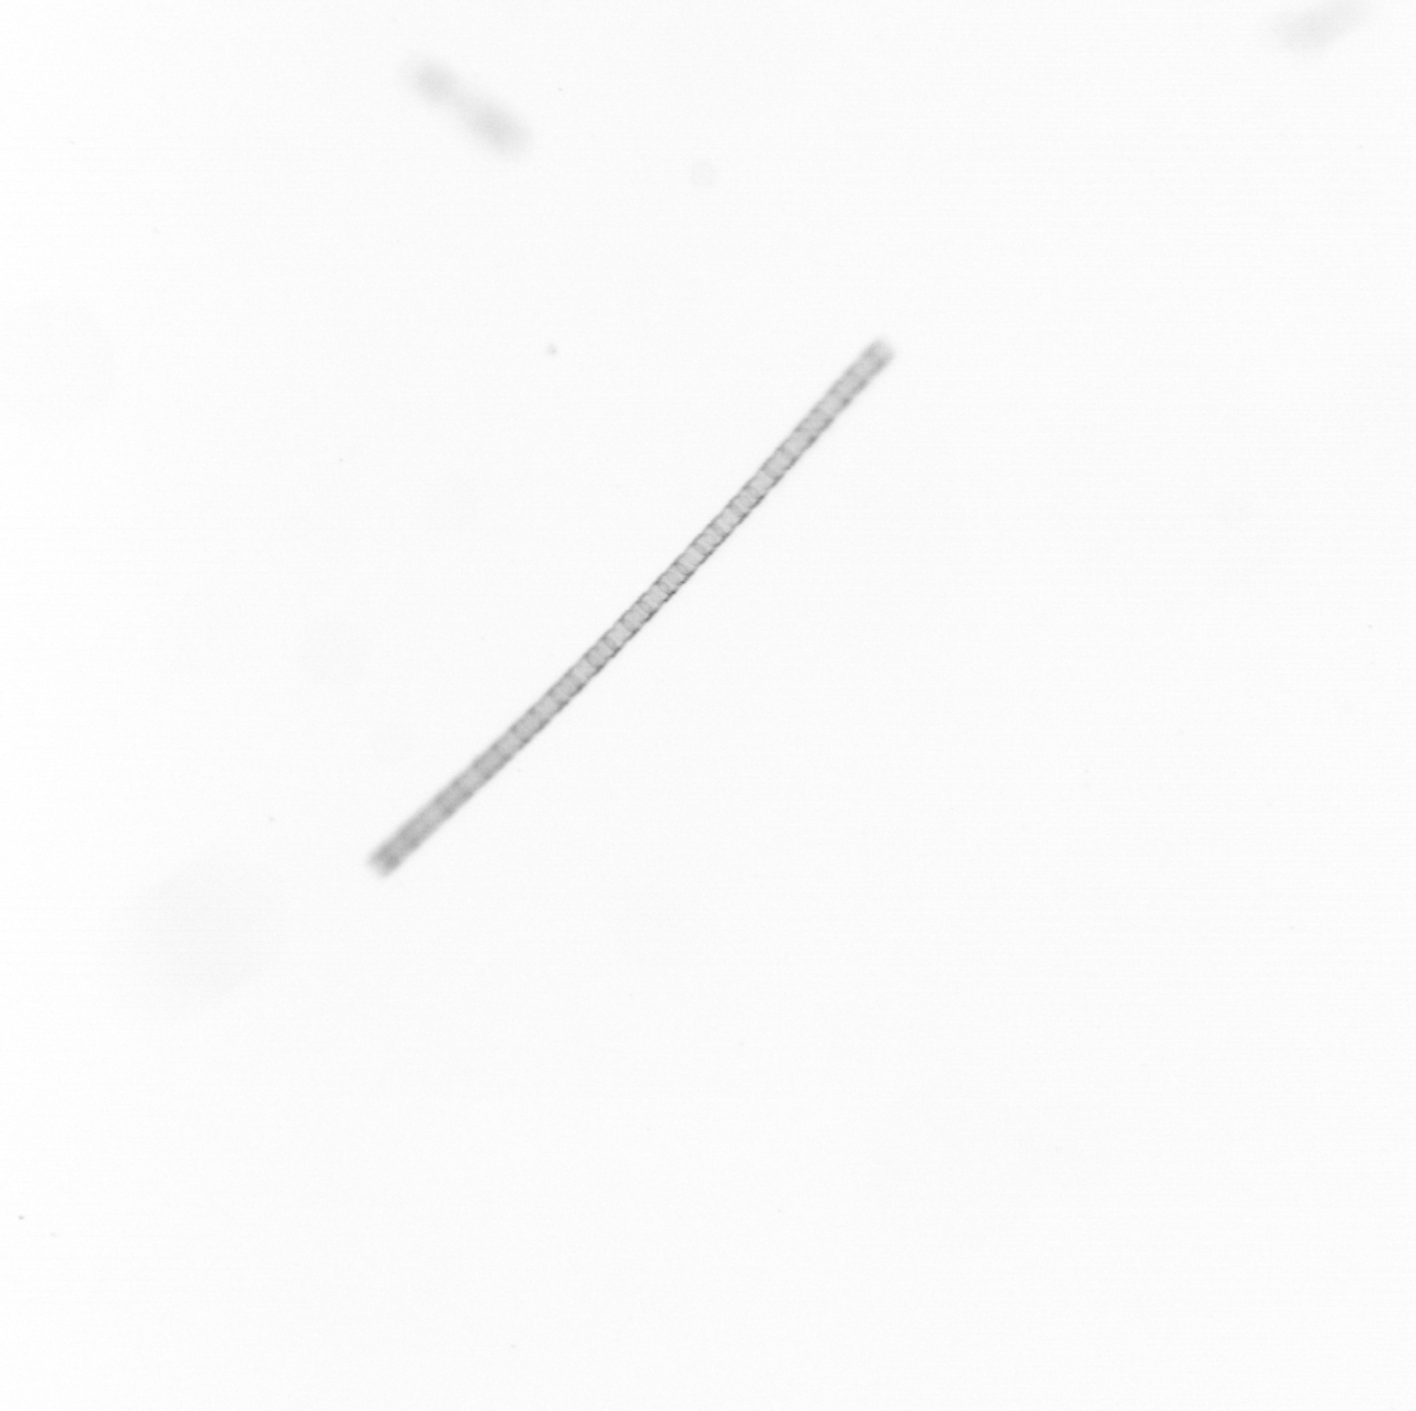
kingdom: Chromista
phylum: Ochrophyta
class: Bacillariophyceae
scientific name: Bacillariophyceae
